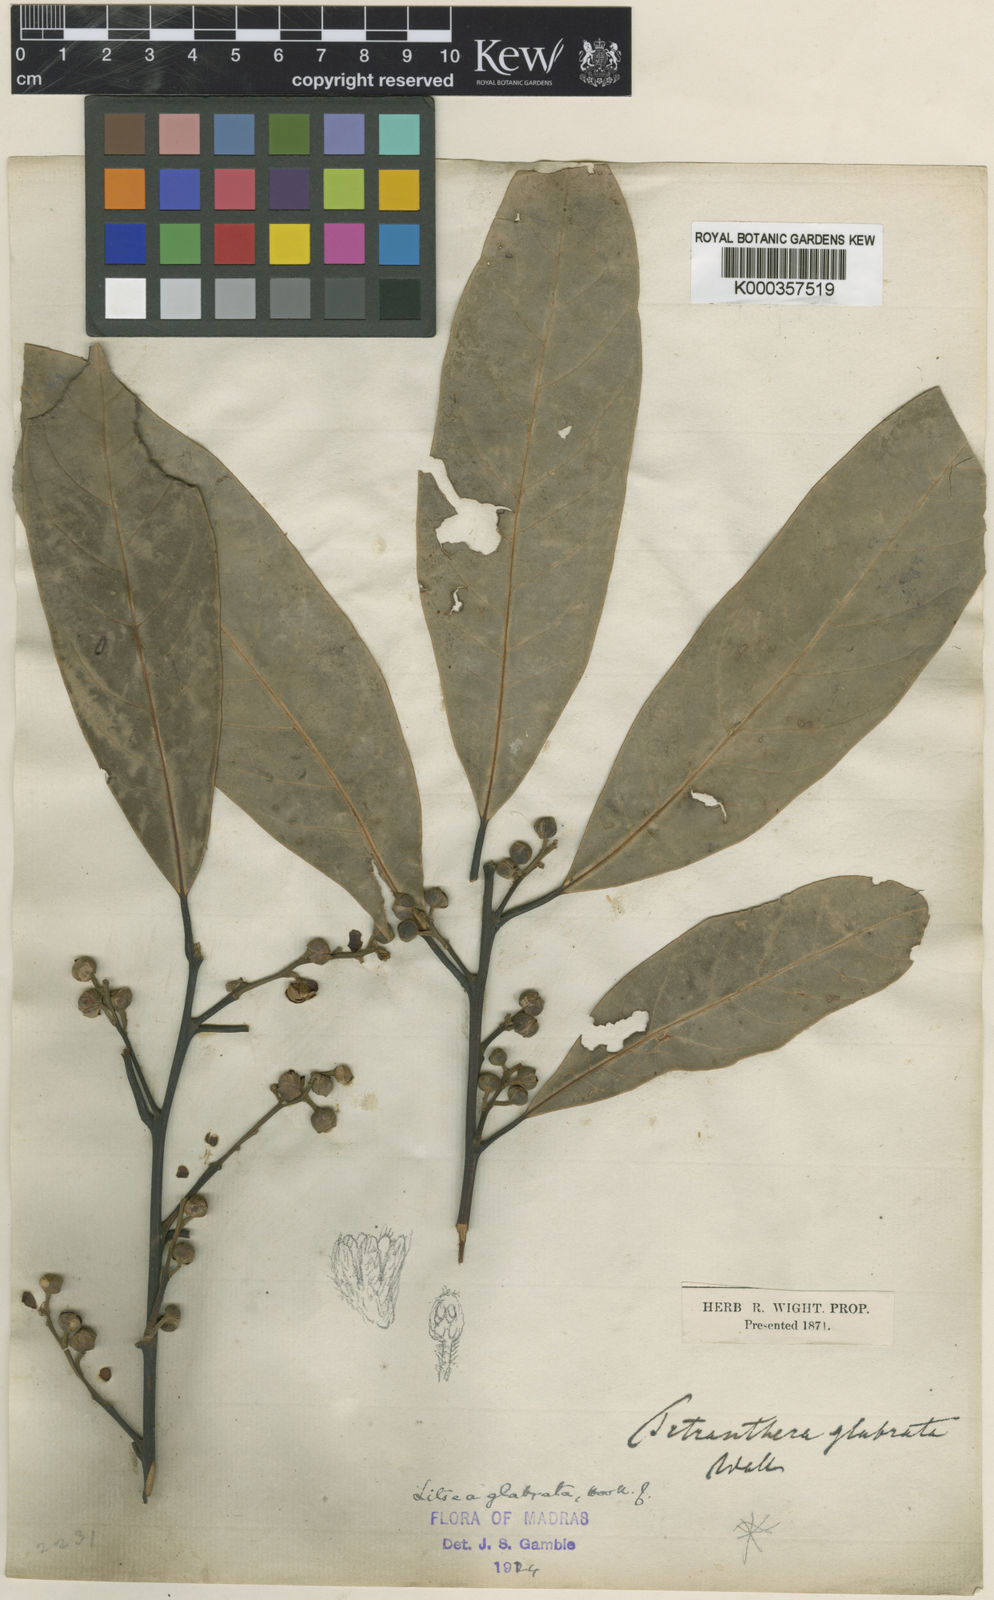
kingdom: Plantae
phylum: Tracheophyta
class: Magnoliopsida
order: Laurales
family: Lauraceae
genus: Litsea
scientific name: Litsea glabrata
